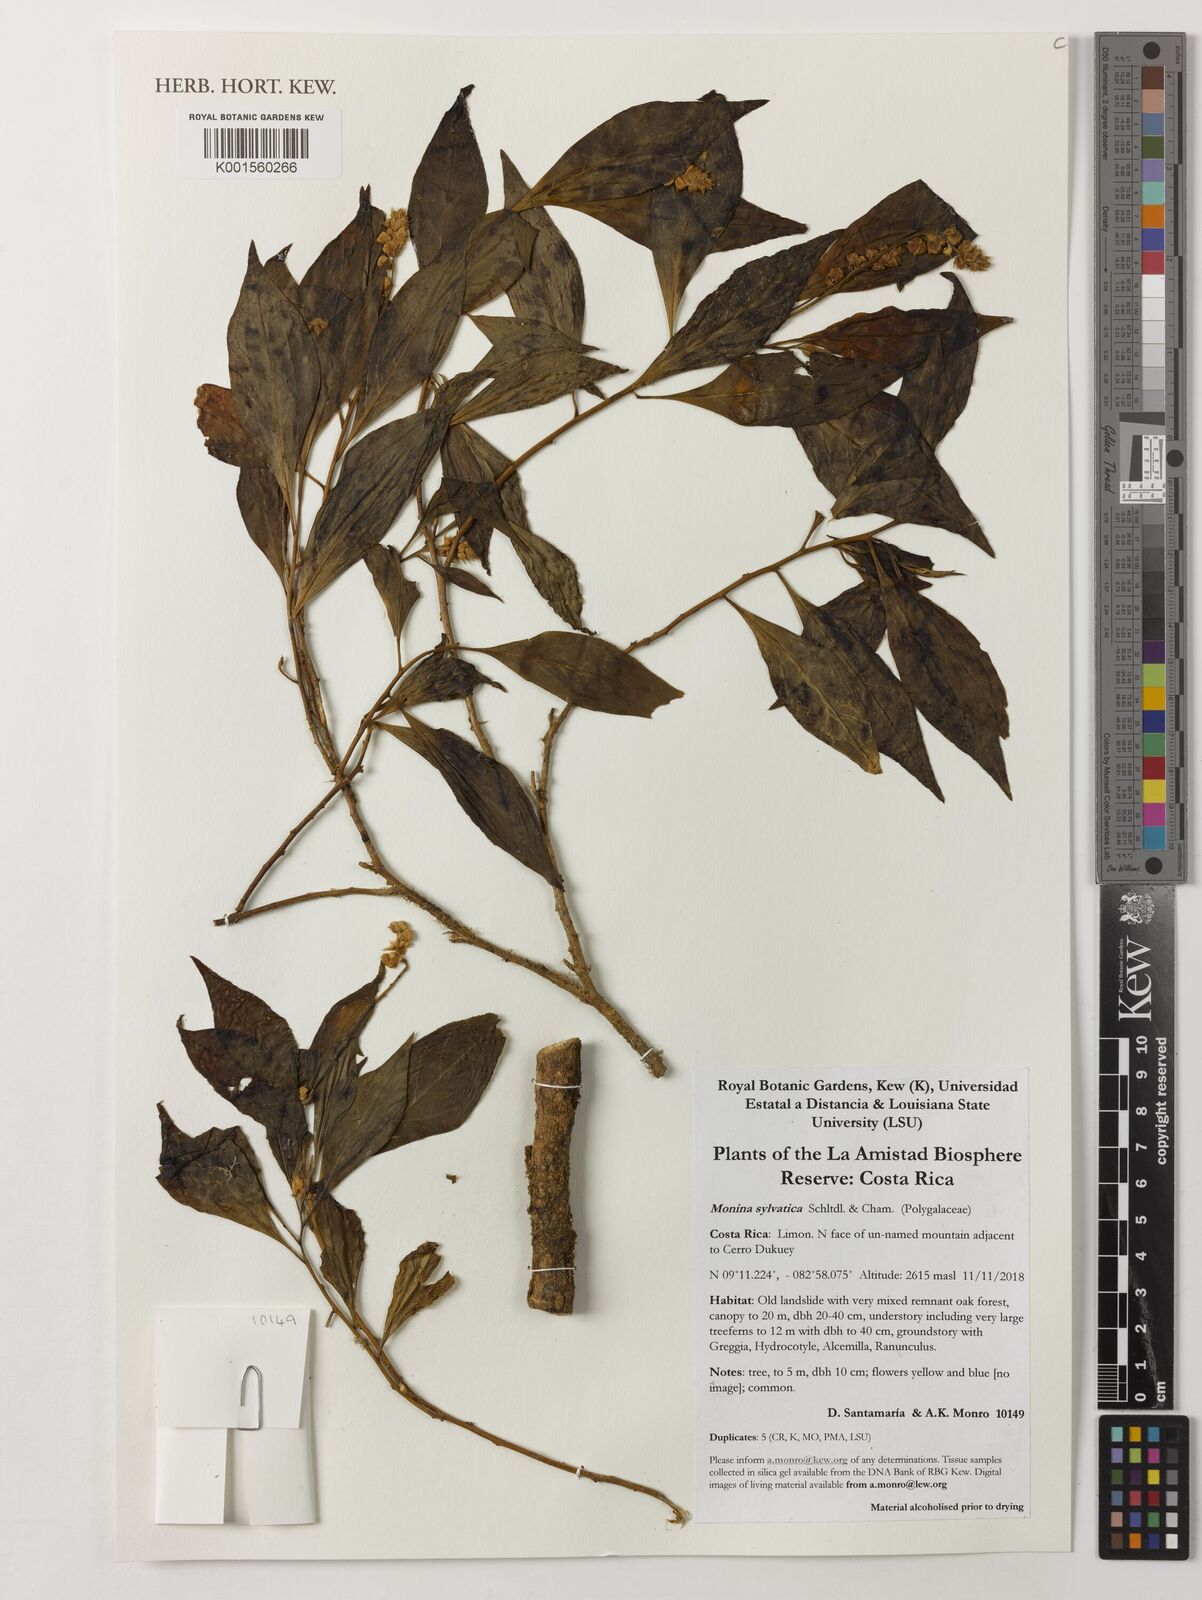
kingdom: Plantae
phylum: Tracheophyta
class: Magnoliopsida
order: Fabales
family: Polygalaceae
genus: Monnina
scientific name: Monnina sylvatica
